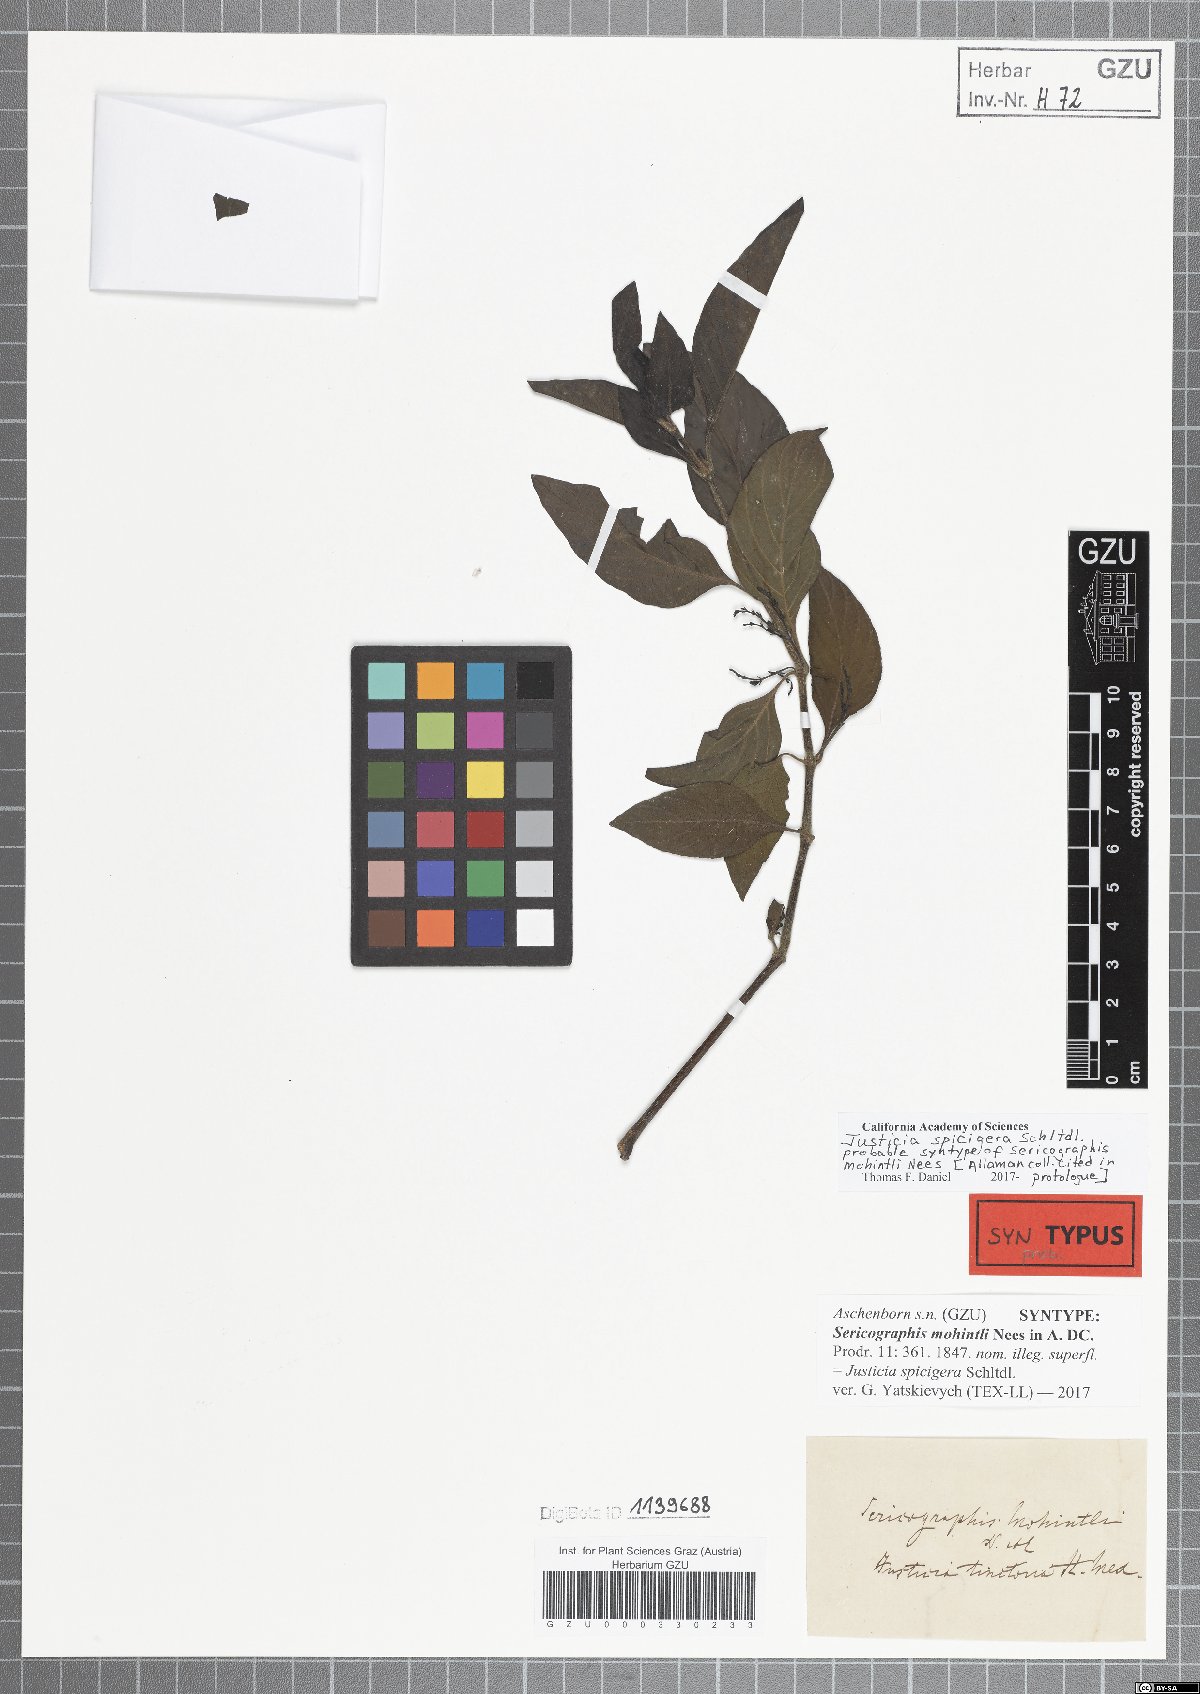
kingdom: Plantae
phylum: Tracheophyta
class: Magnoliopsida
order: Lamiales
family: Acanthaceae
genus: Justicia
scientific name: Justicia spicigera
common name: Mohintli
